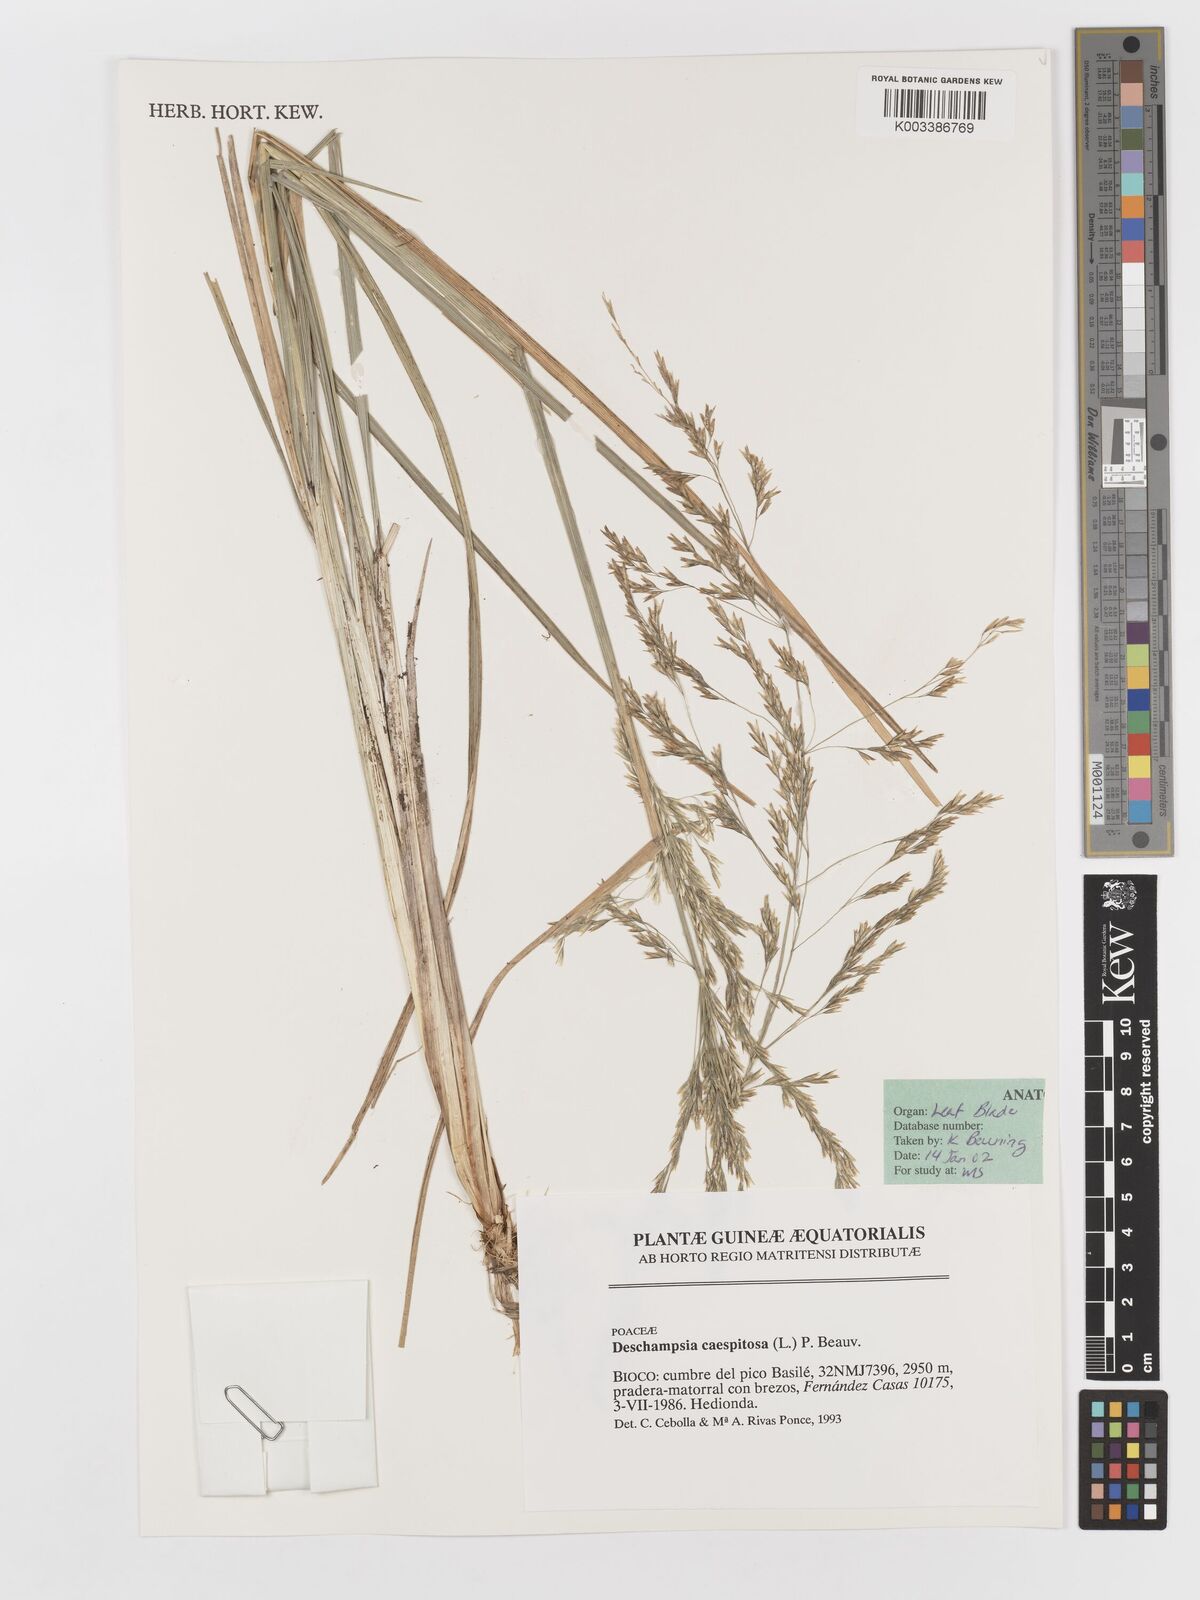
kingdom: Plantae
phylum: Tracheophyta
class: Liliopsida
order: Poales
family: Poaceae
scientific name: Poaceae
